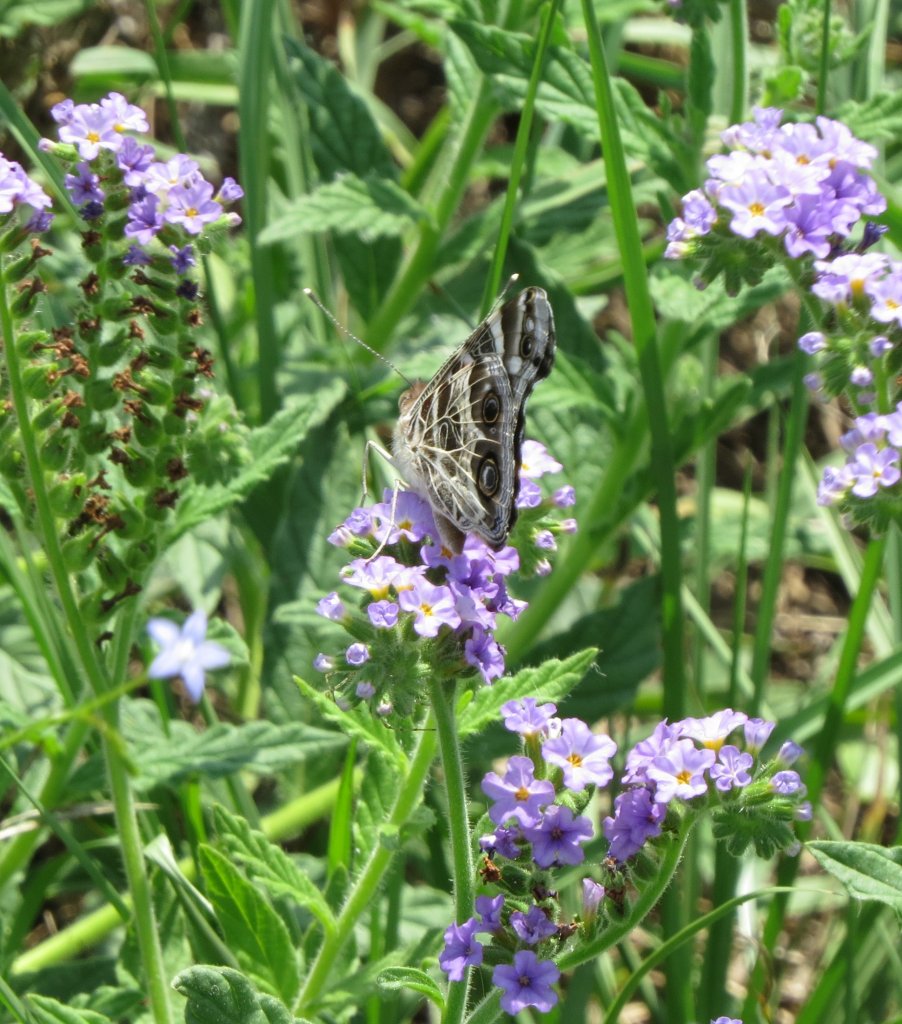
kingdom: Animalia
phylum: Arthropoda
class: Insecta
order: Lepidoptera
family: Nymphalidae
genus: Vanessa
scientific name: Vanessa virginiensis
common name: American Lady
